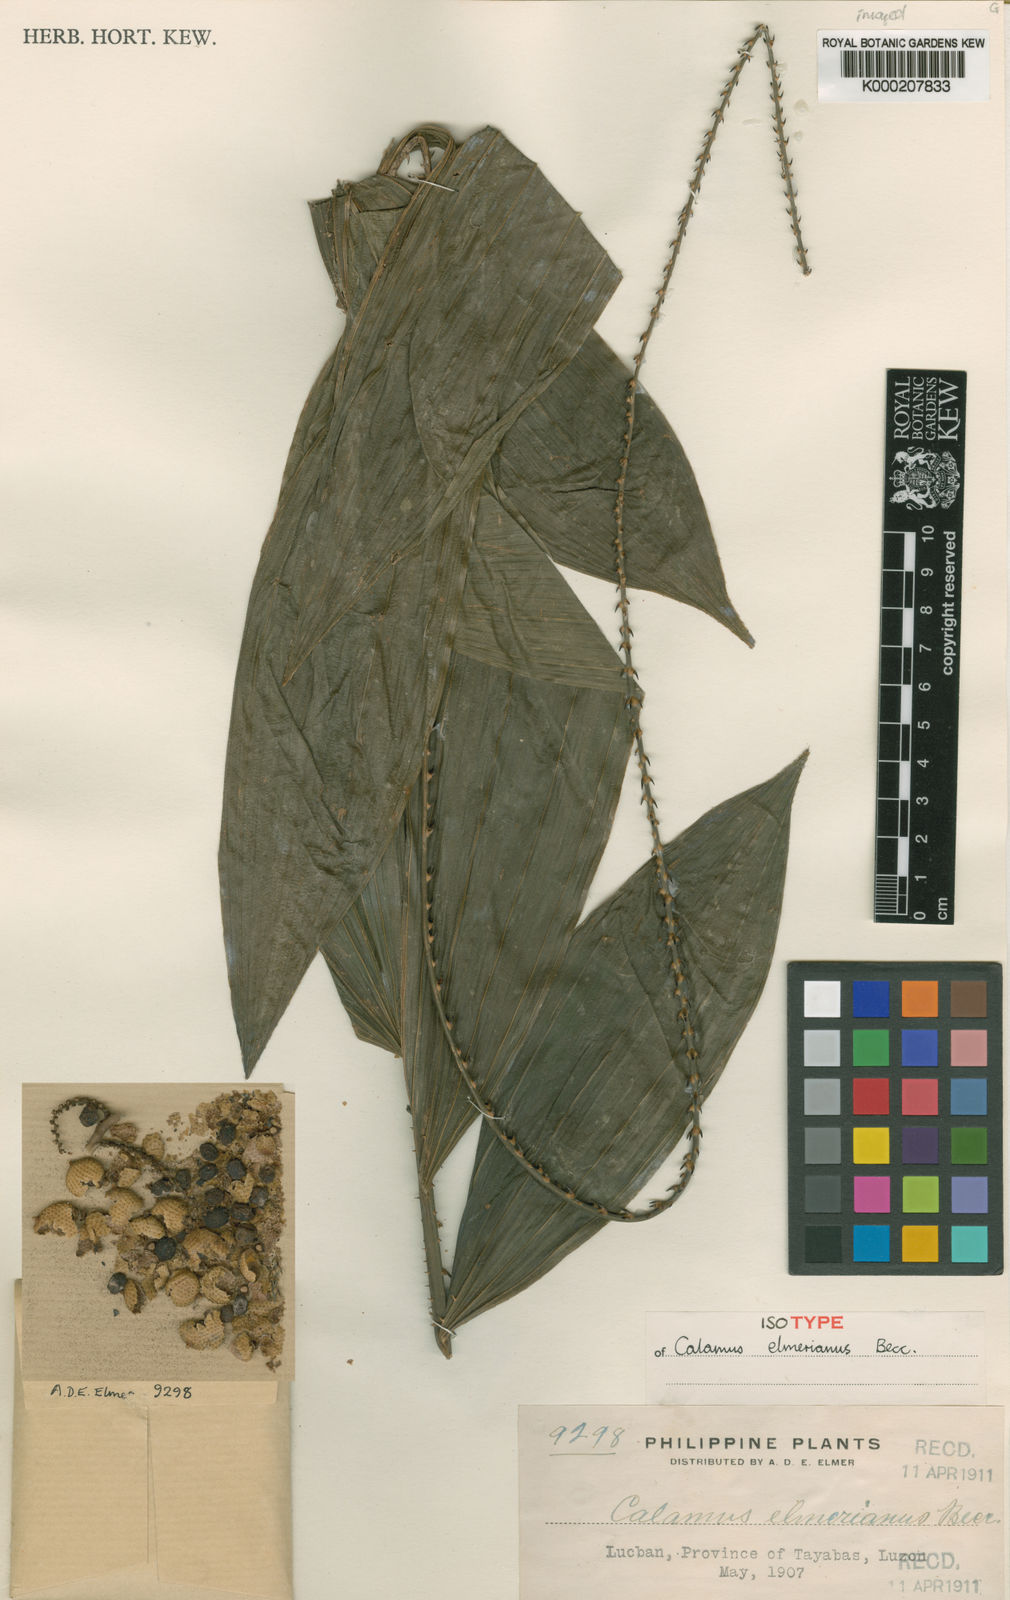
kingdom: Plantae
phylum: Tracheophyta
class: Liliopsida
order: Arecales
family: Arecaceae
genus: Calamus
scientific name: Calamus
